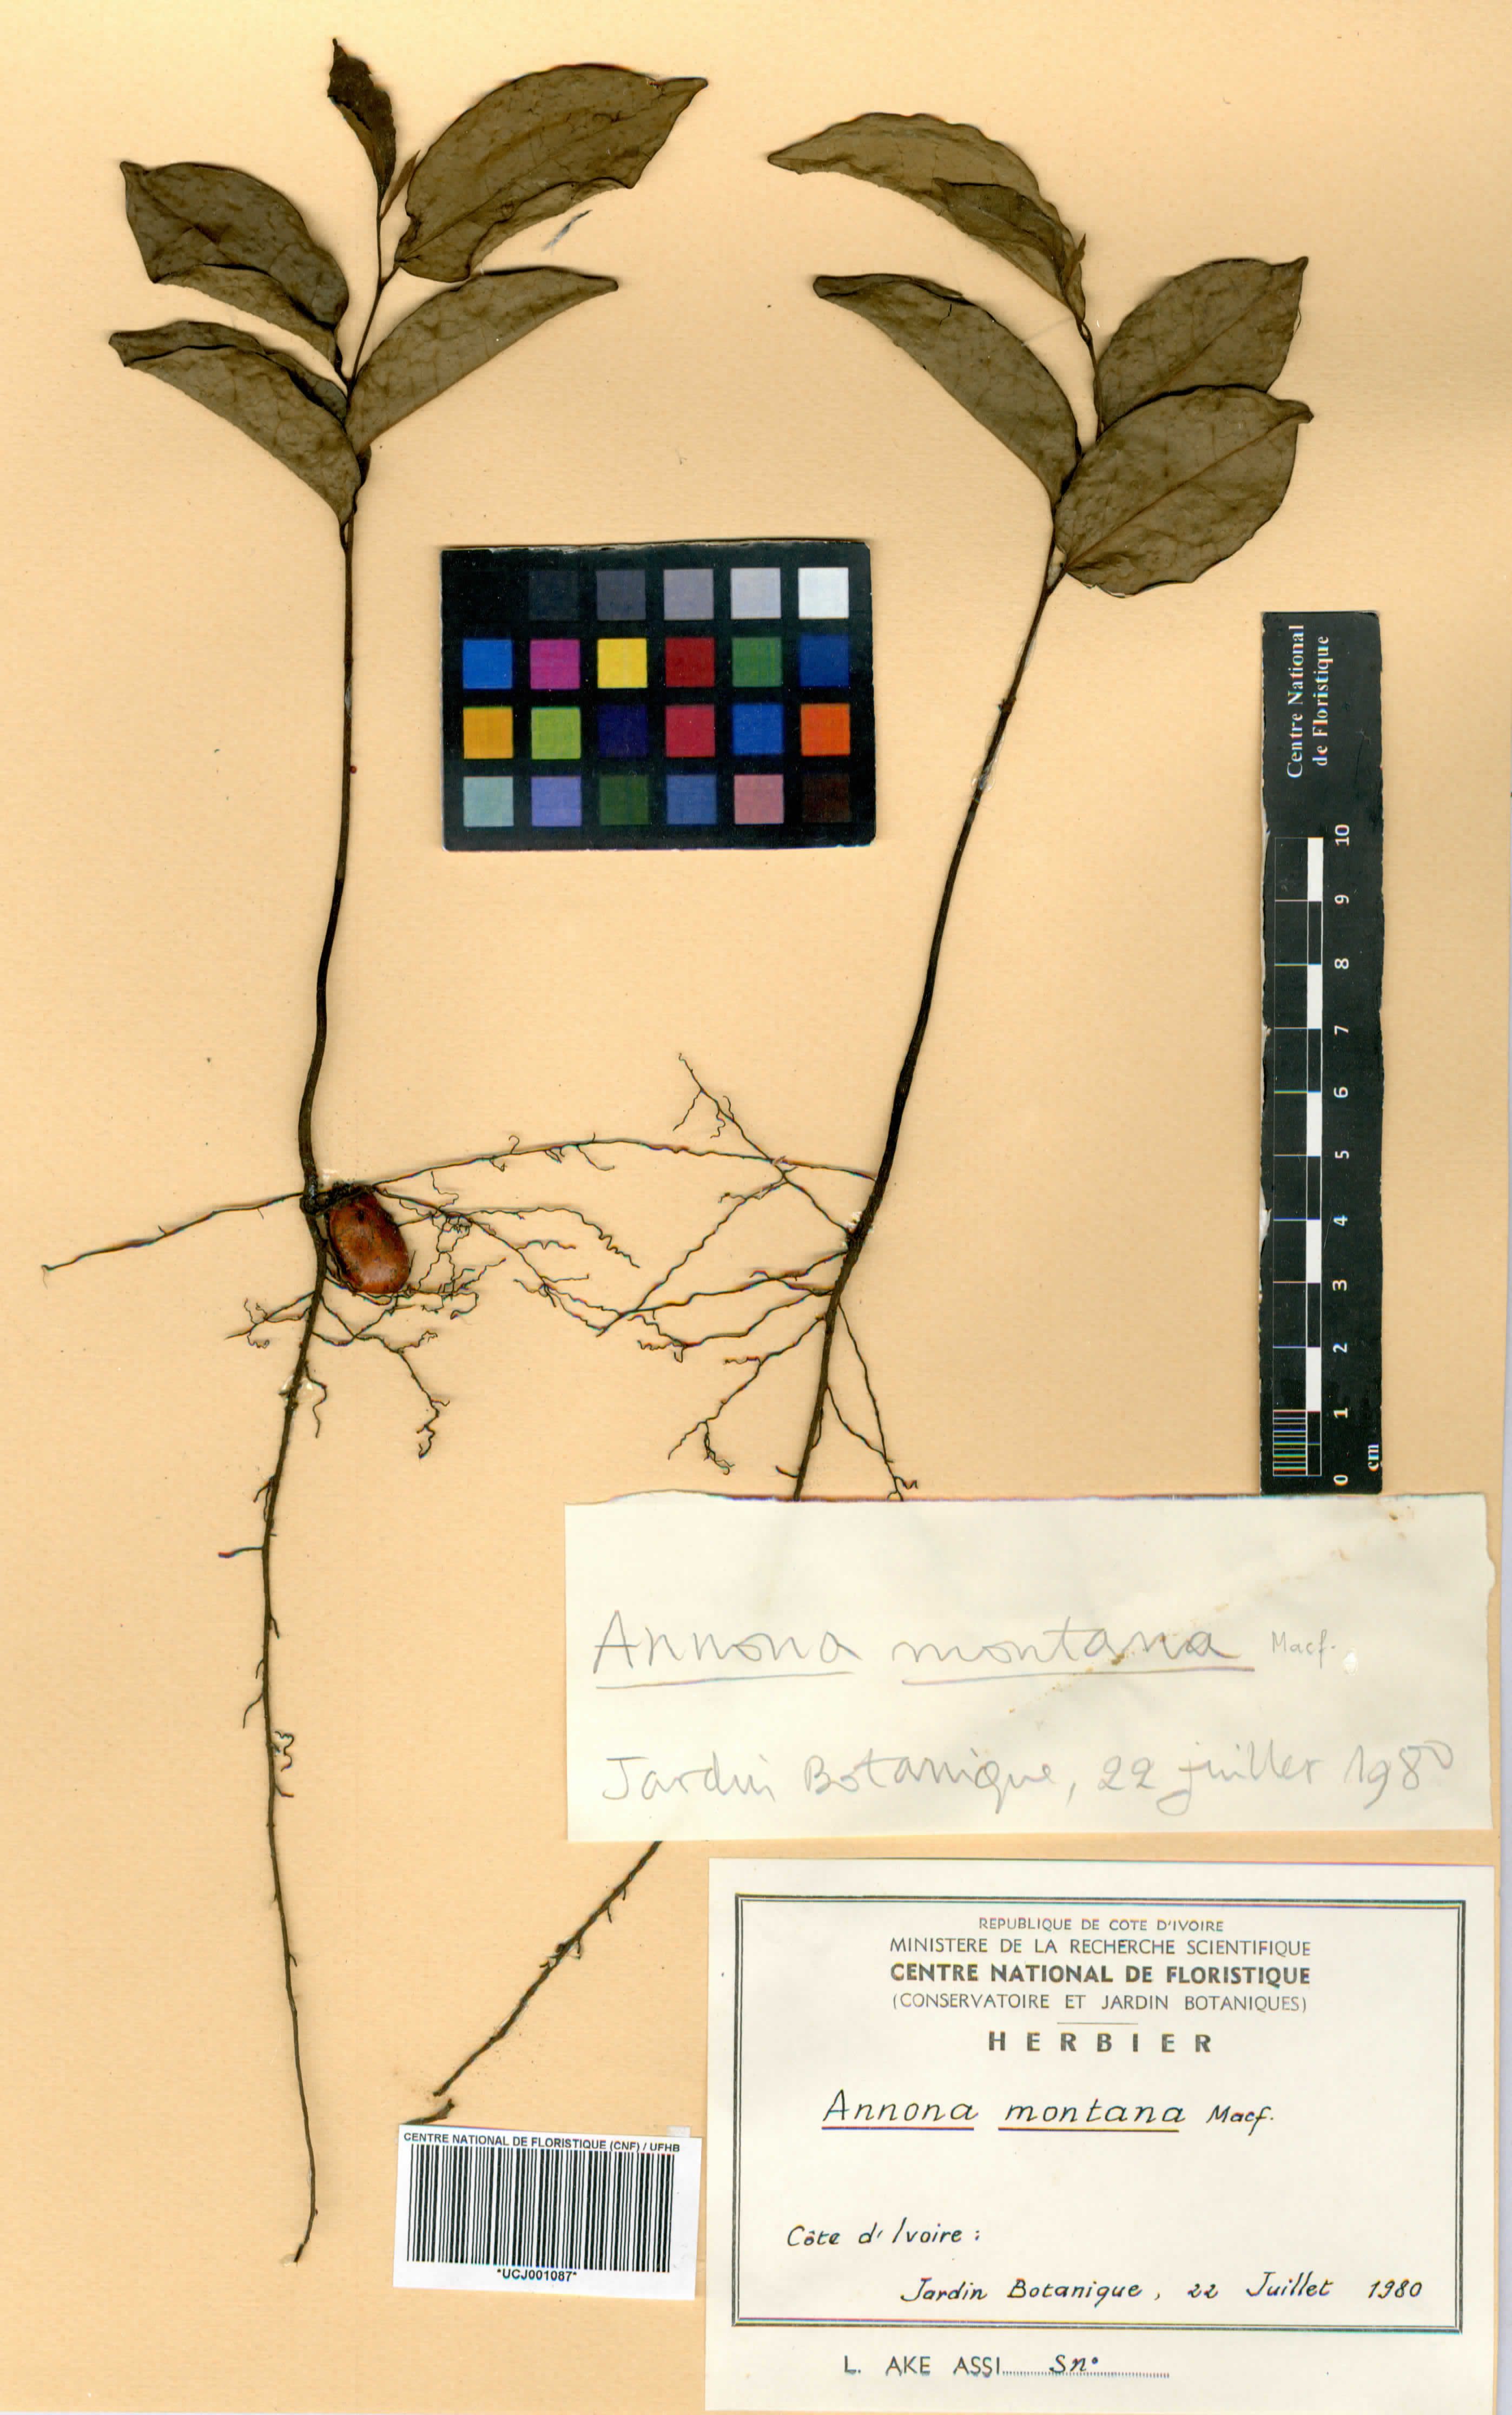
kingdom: Plantae
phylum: Tracheophyta
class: Magnoliopsida
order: Magnoliales
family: Annonaceae
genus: Annona
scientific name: Annona montana
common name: Mountain soursop
